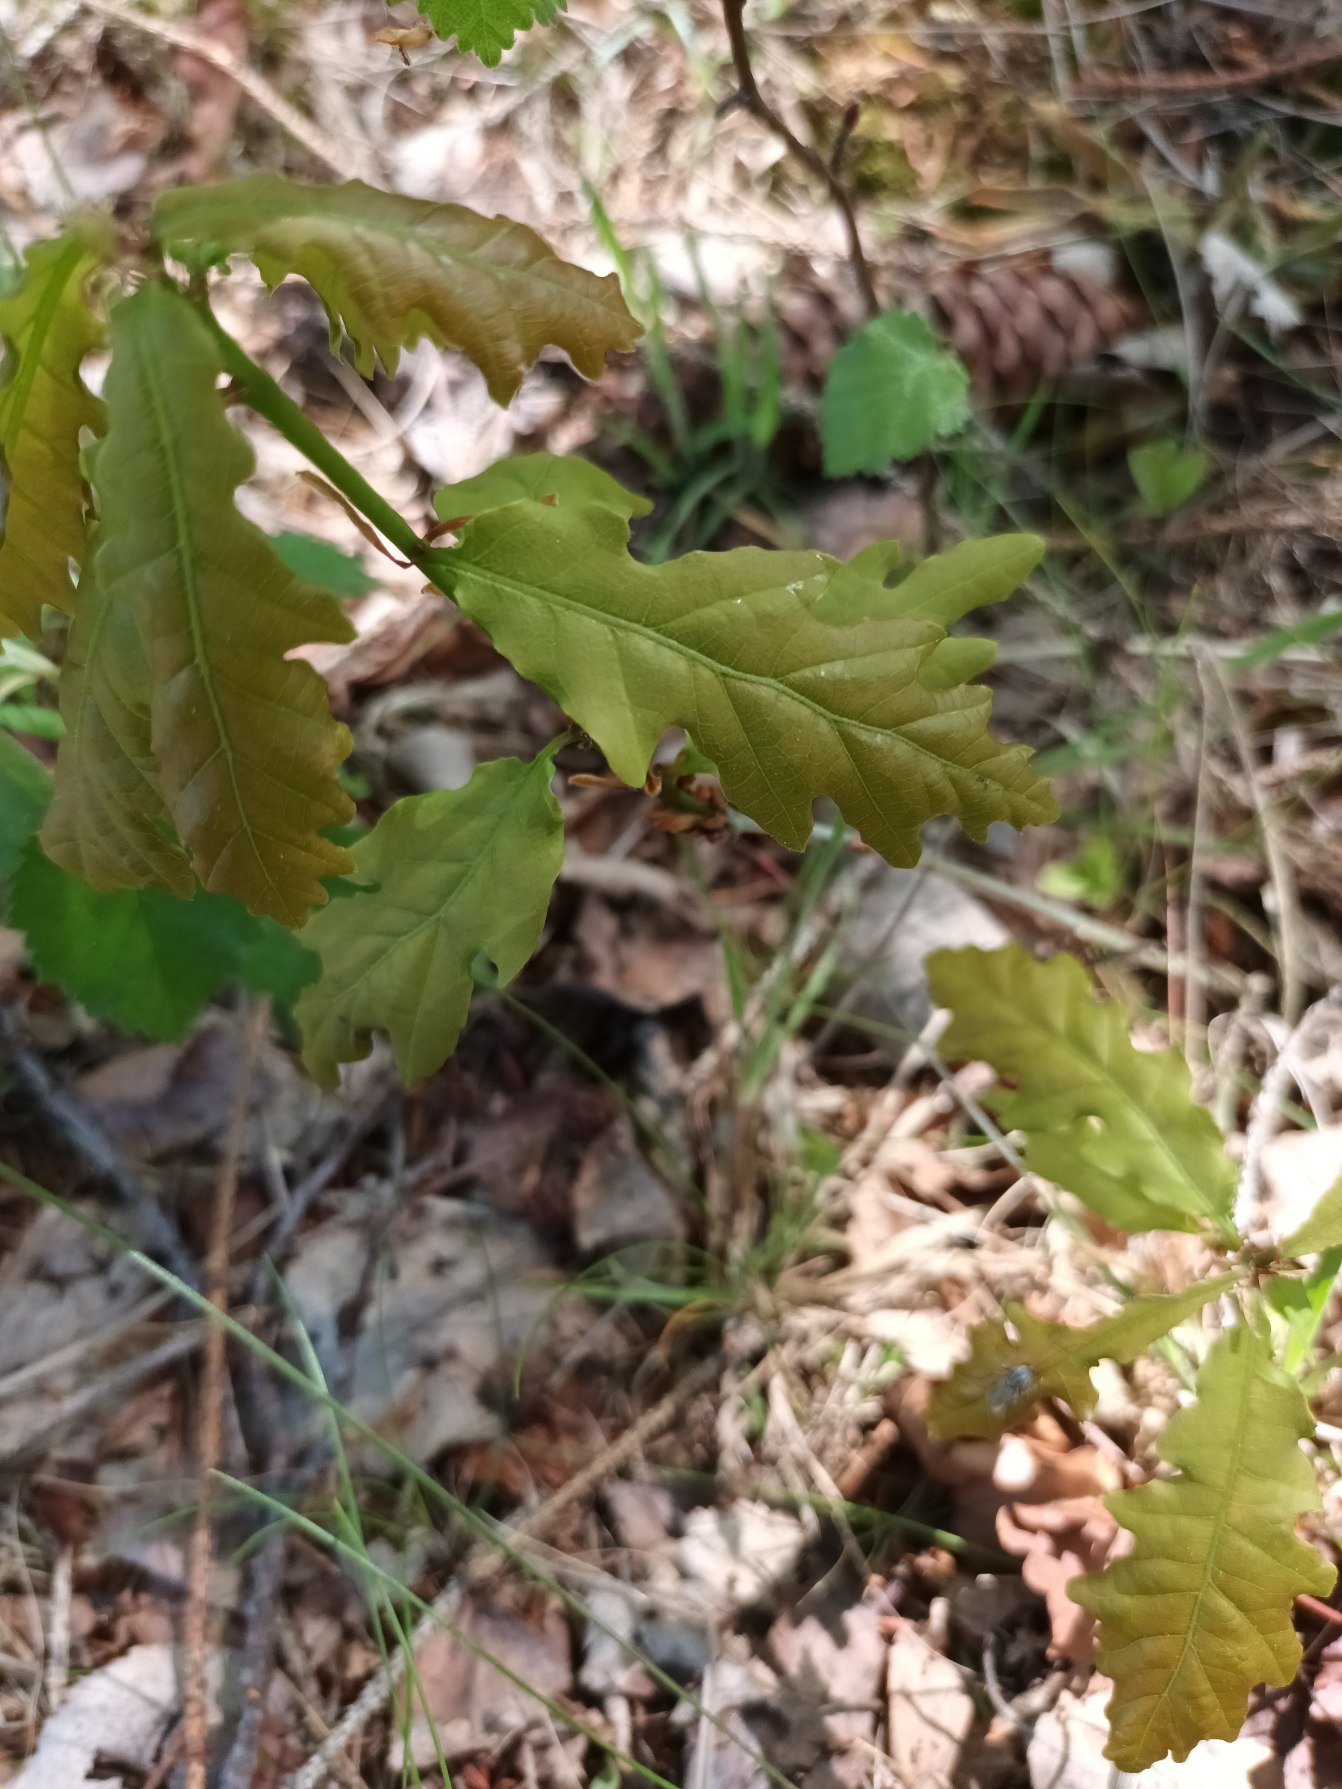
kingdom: Plantae
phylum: Tracheophyta
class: Magnoliopsida
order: Fagales
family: Fagaceae
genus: Quercus
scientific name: Quercus robur
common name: Stilk-eg/almindelig eg
